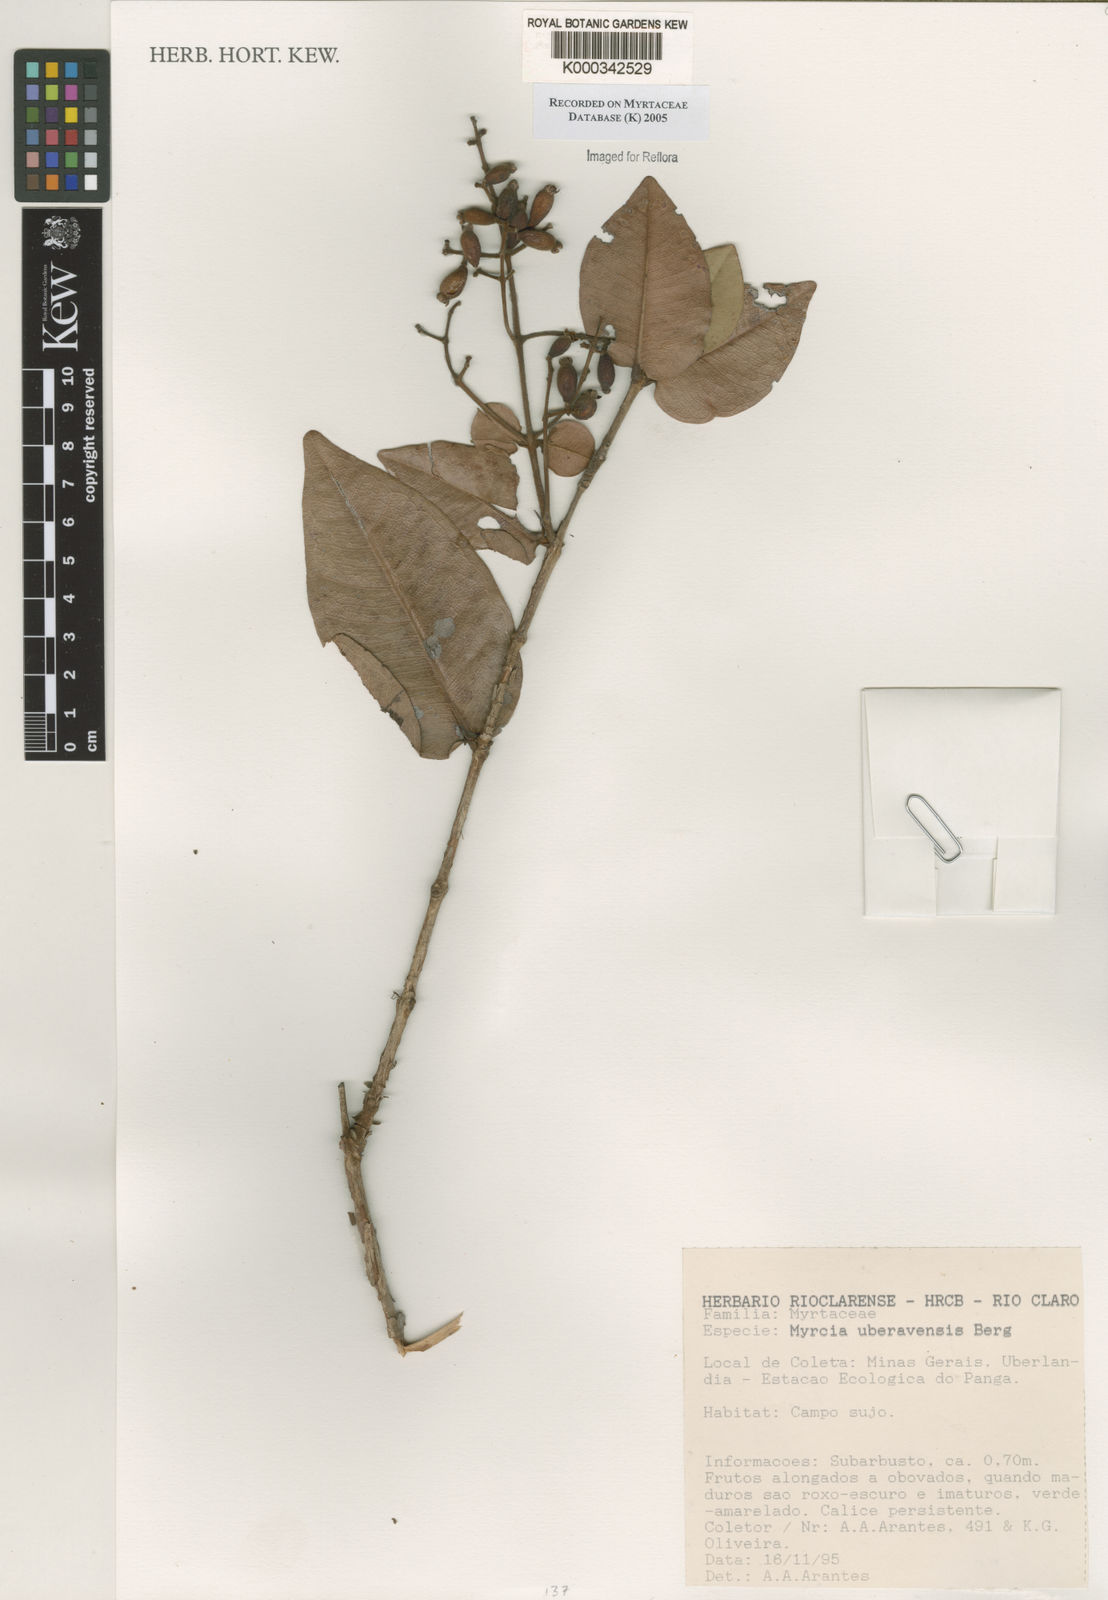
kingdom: Plantae
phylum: Tracheophyta
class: Magnoliopsida
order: Myrtales
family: Myrtaceae
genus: Myrcia
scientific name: Myrcia uberavensis
